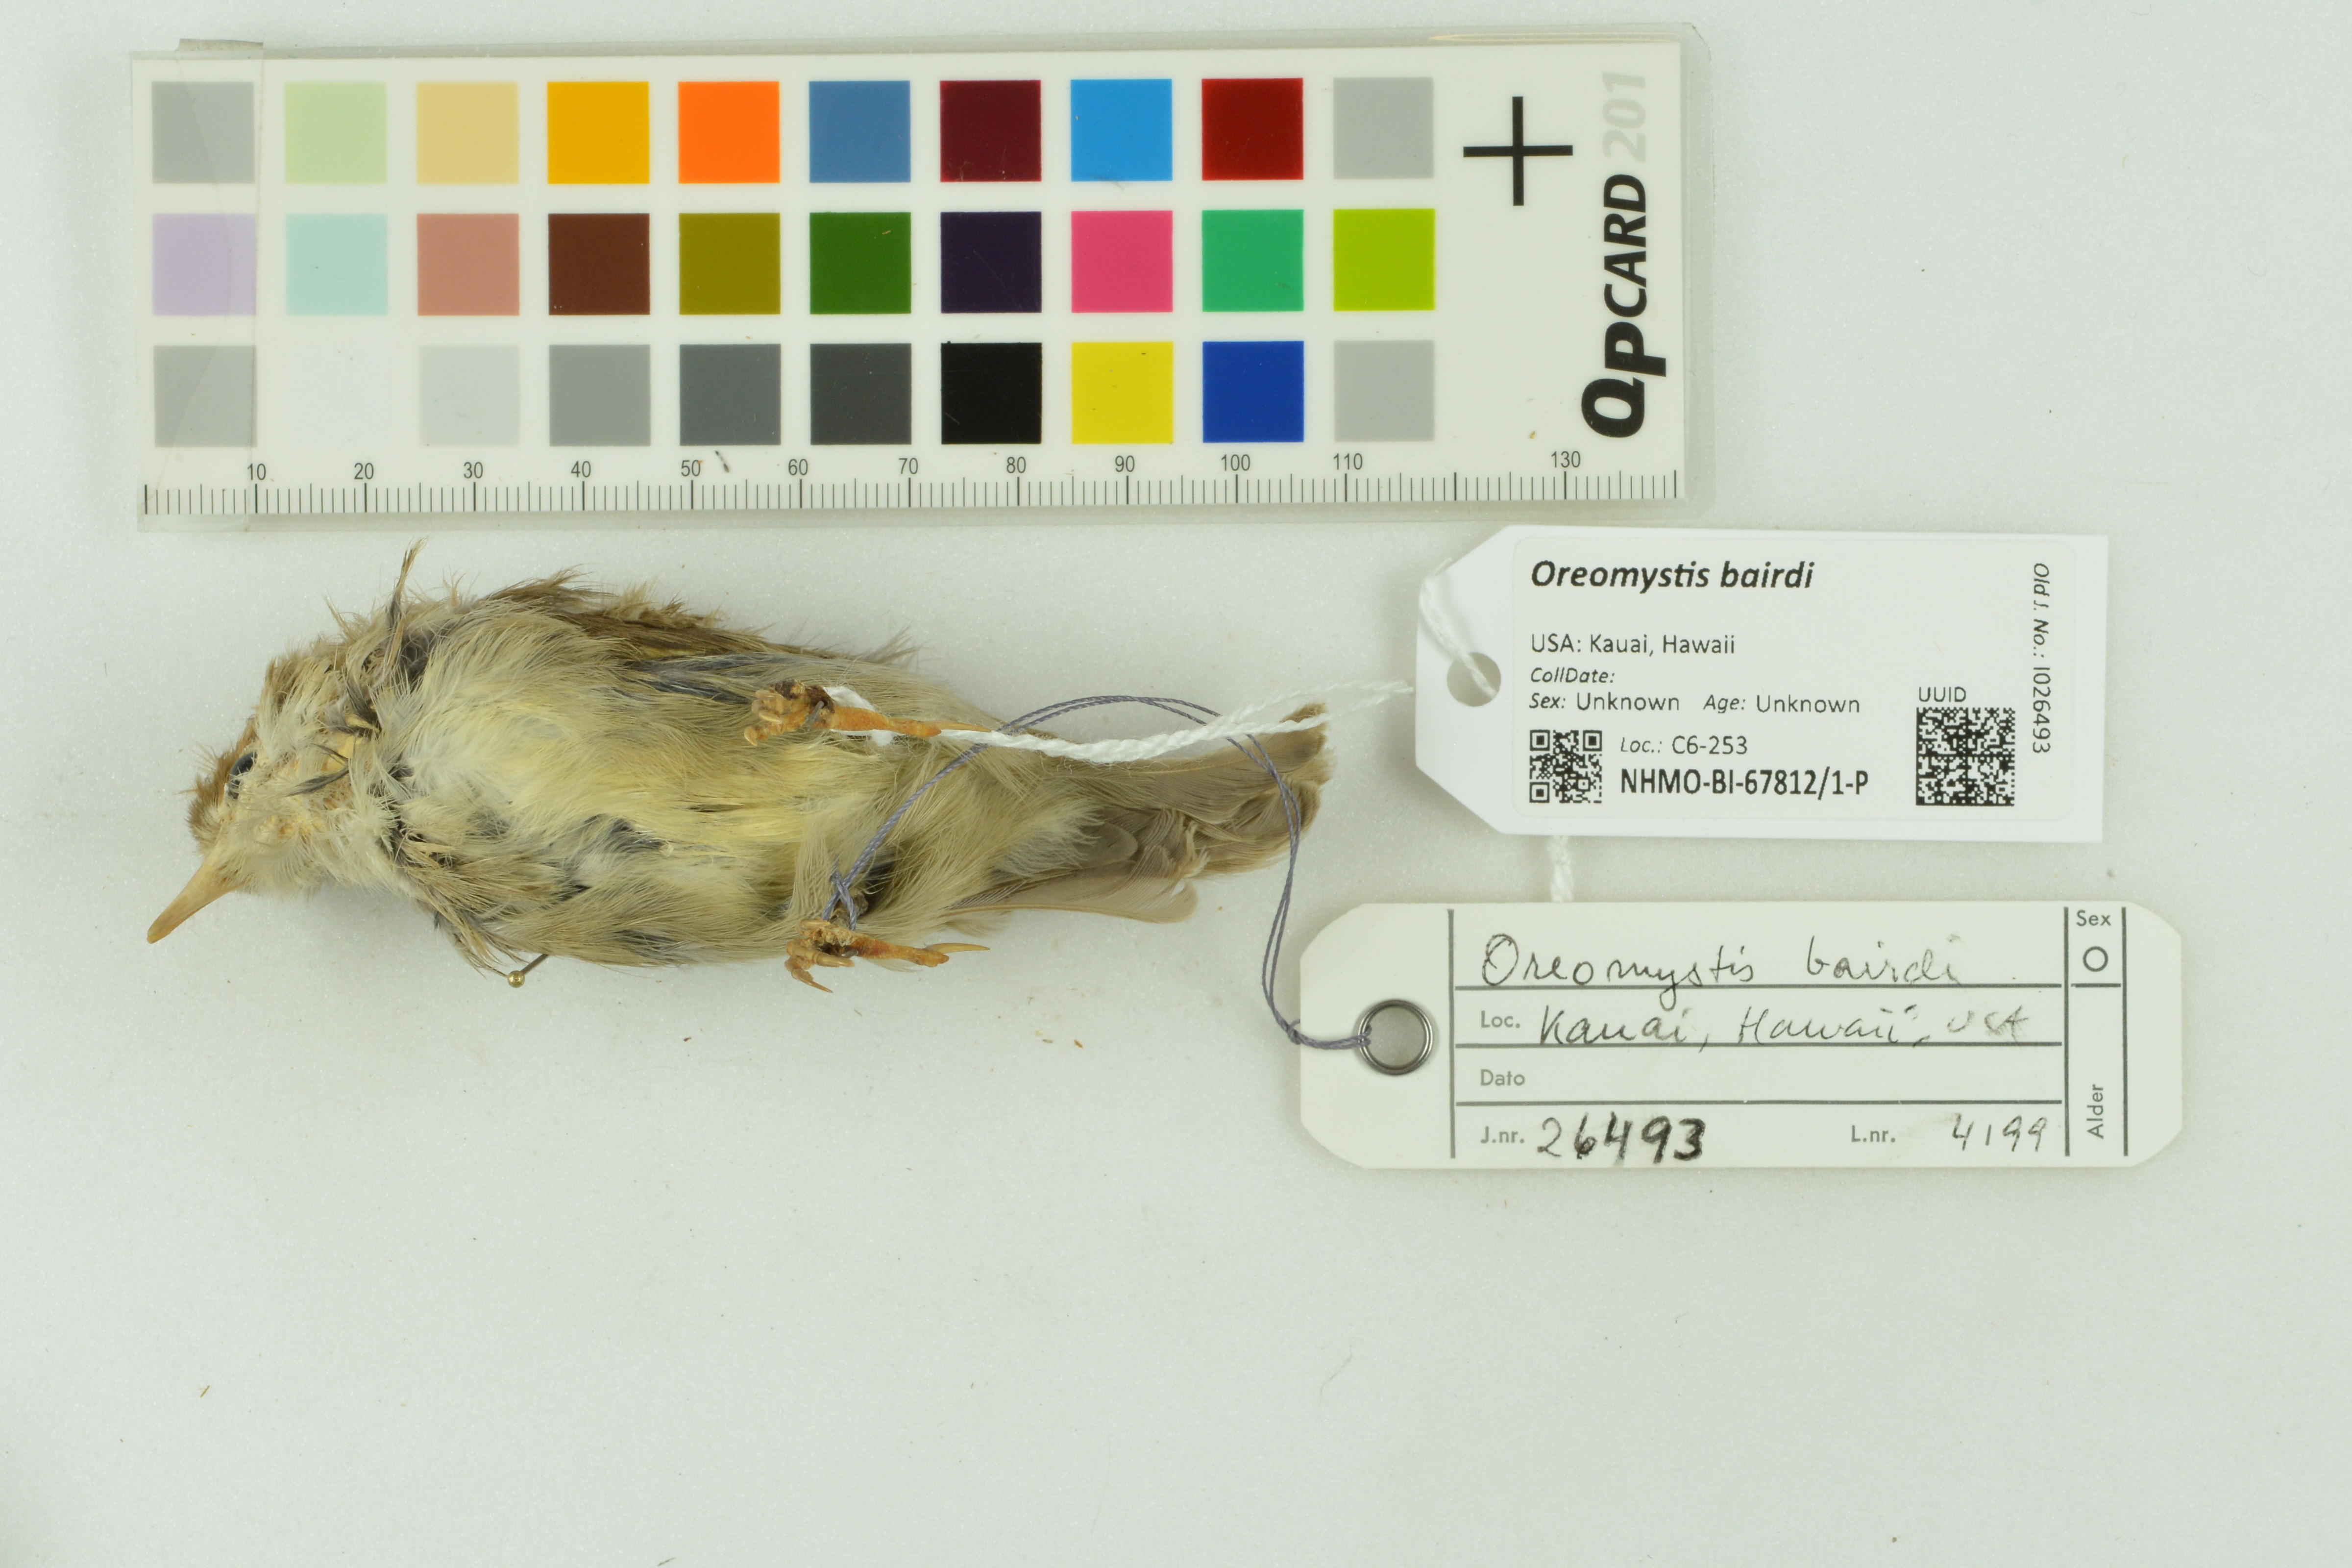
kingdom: Animalia
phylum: Chordata
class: Aves
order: Passeriformes
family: Fringillidae
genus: Oreomystis
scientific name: Oreomystis bairdi
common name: Akikiki
